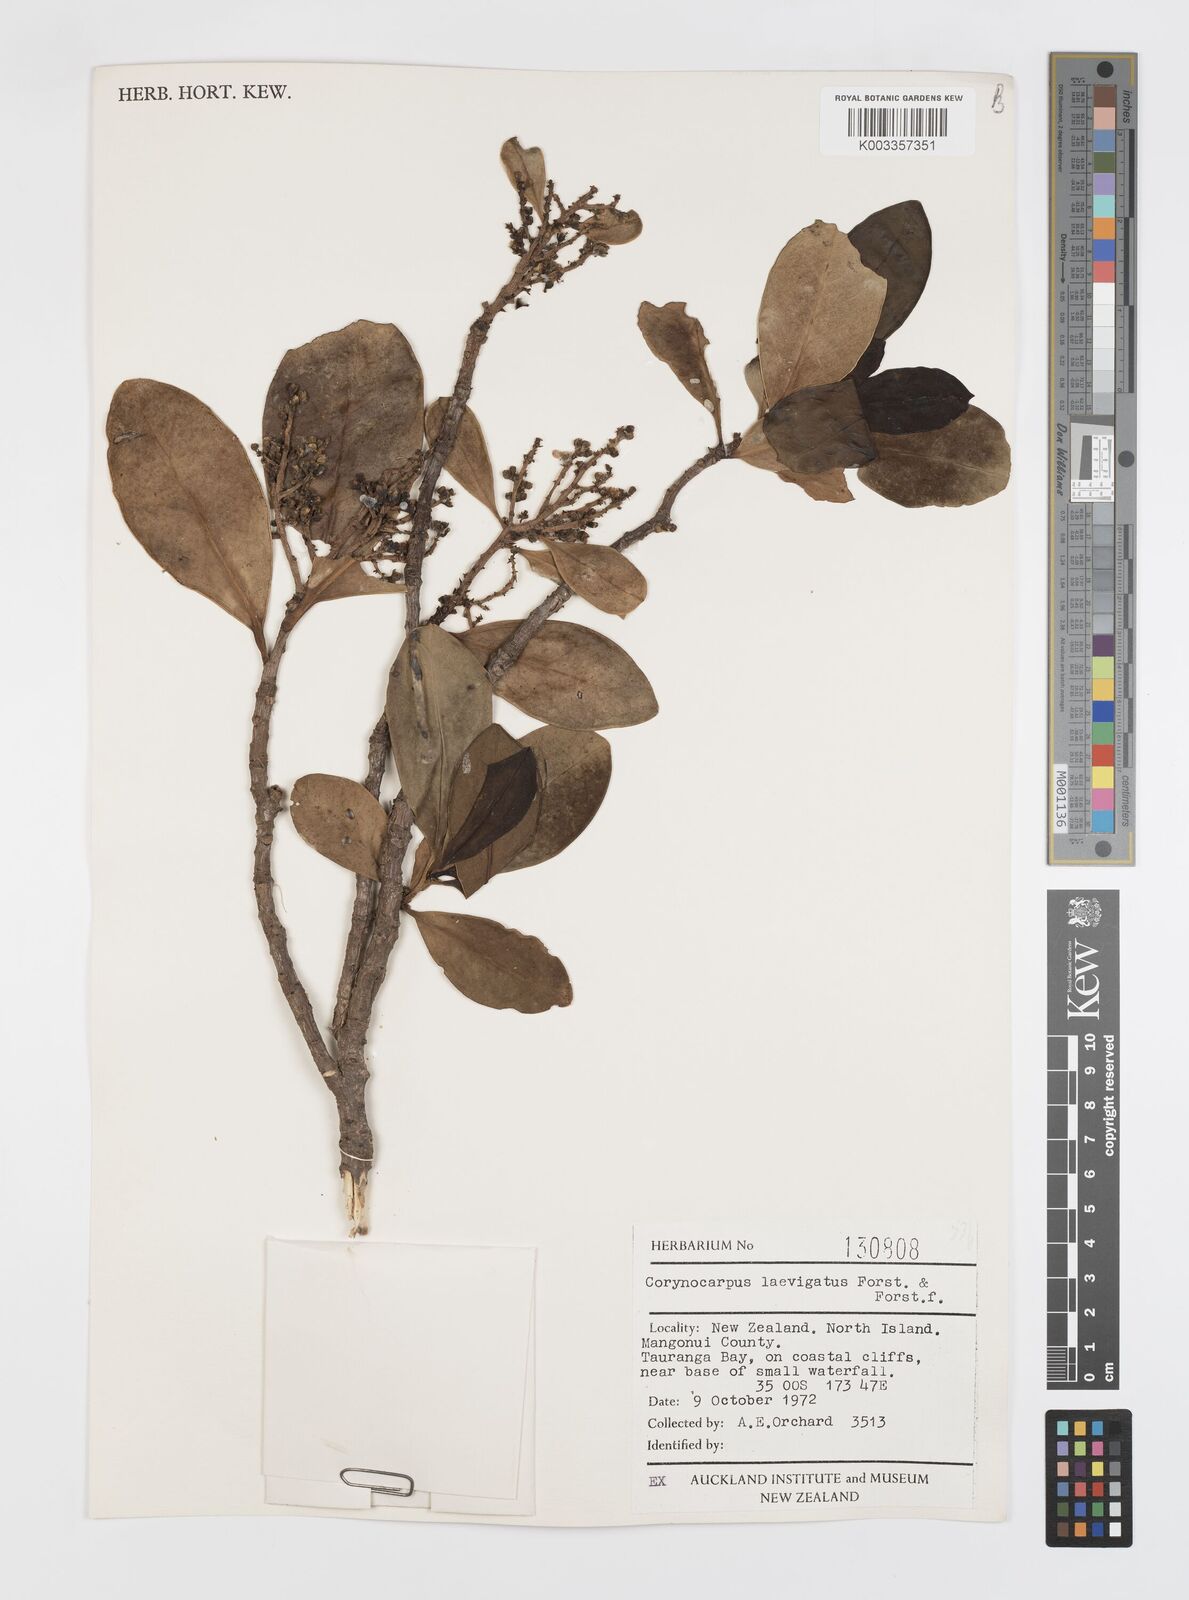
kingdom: Plantae
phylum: Tracheophyta
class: Magnoliopsida
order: Cucurbitales
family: Corynocarpaceae
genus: Corynocarpus
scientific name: Corynocarpus laevigatus
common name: New zealand laurel
